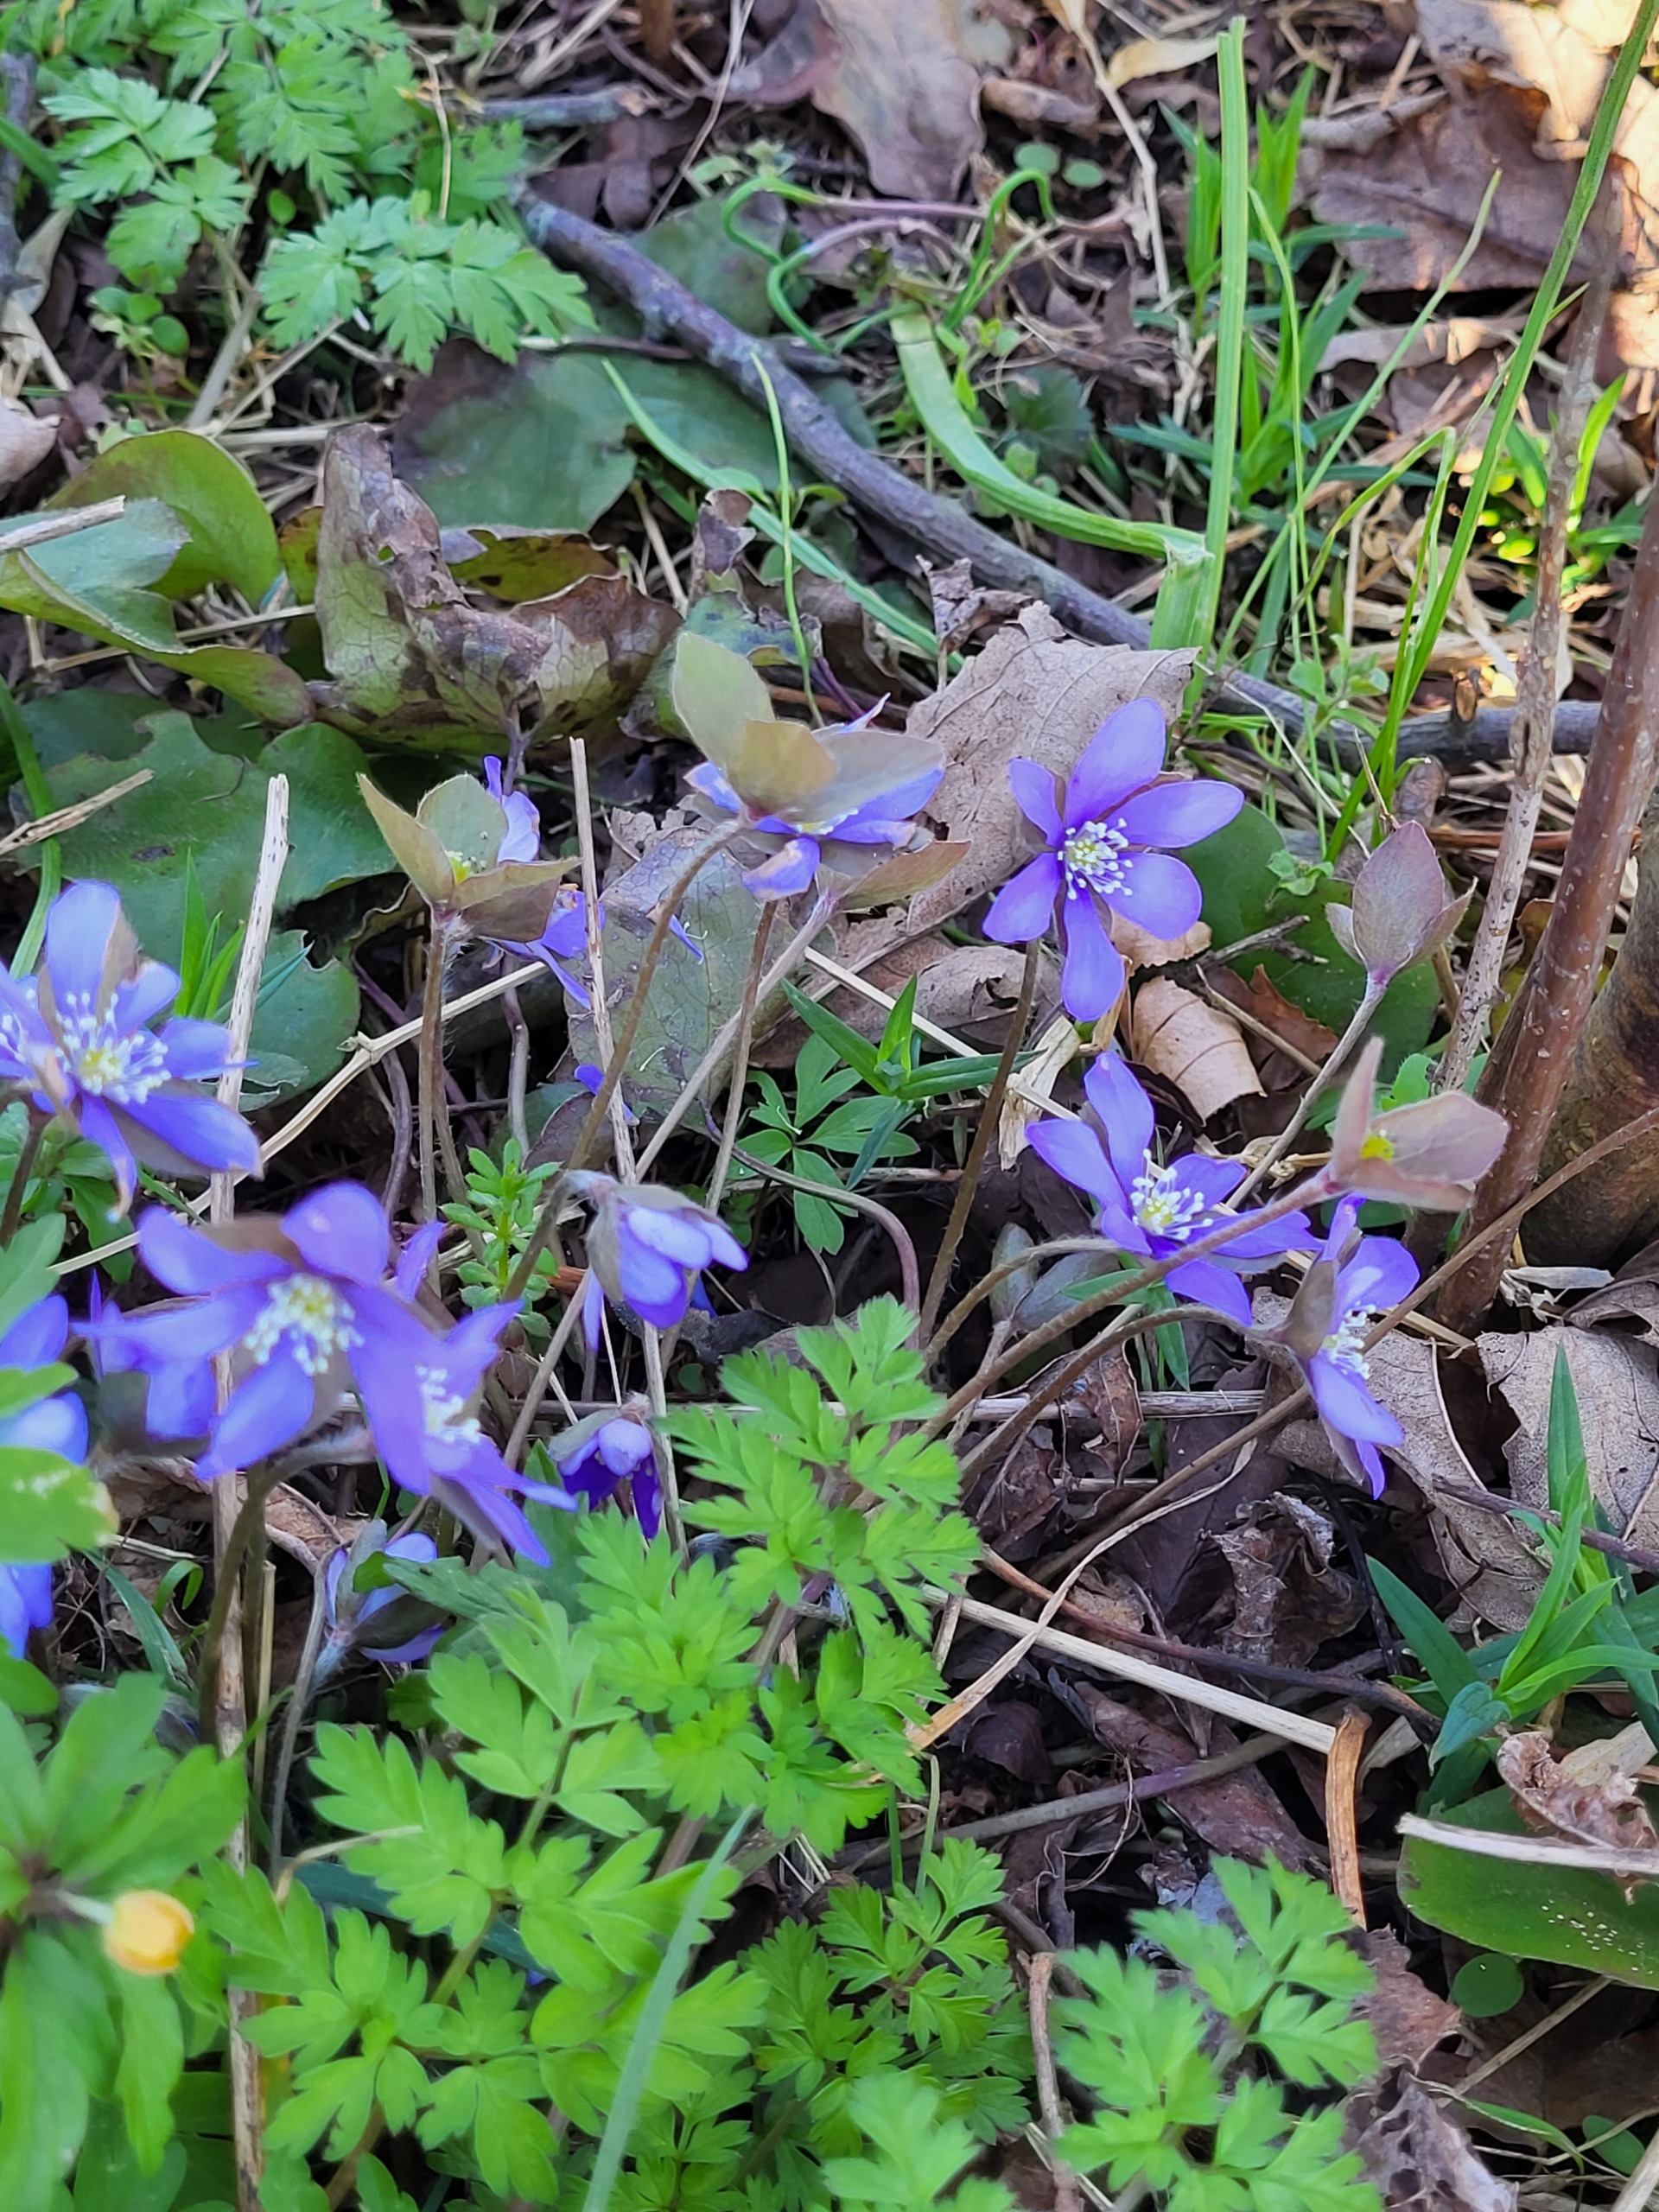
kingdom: Plantae
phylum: Tracheophyta
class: Magnoliopsida
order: Ranunculales
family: Ranunculaceae
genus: Hepatica
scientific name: Hepatica nobilis
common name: Blå anemone
